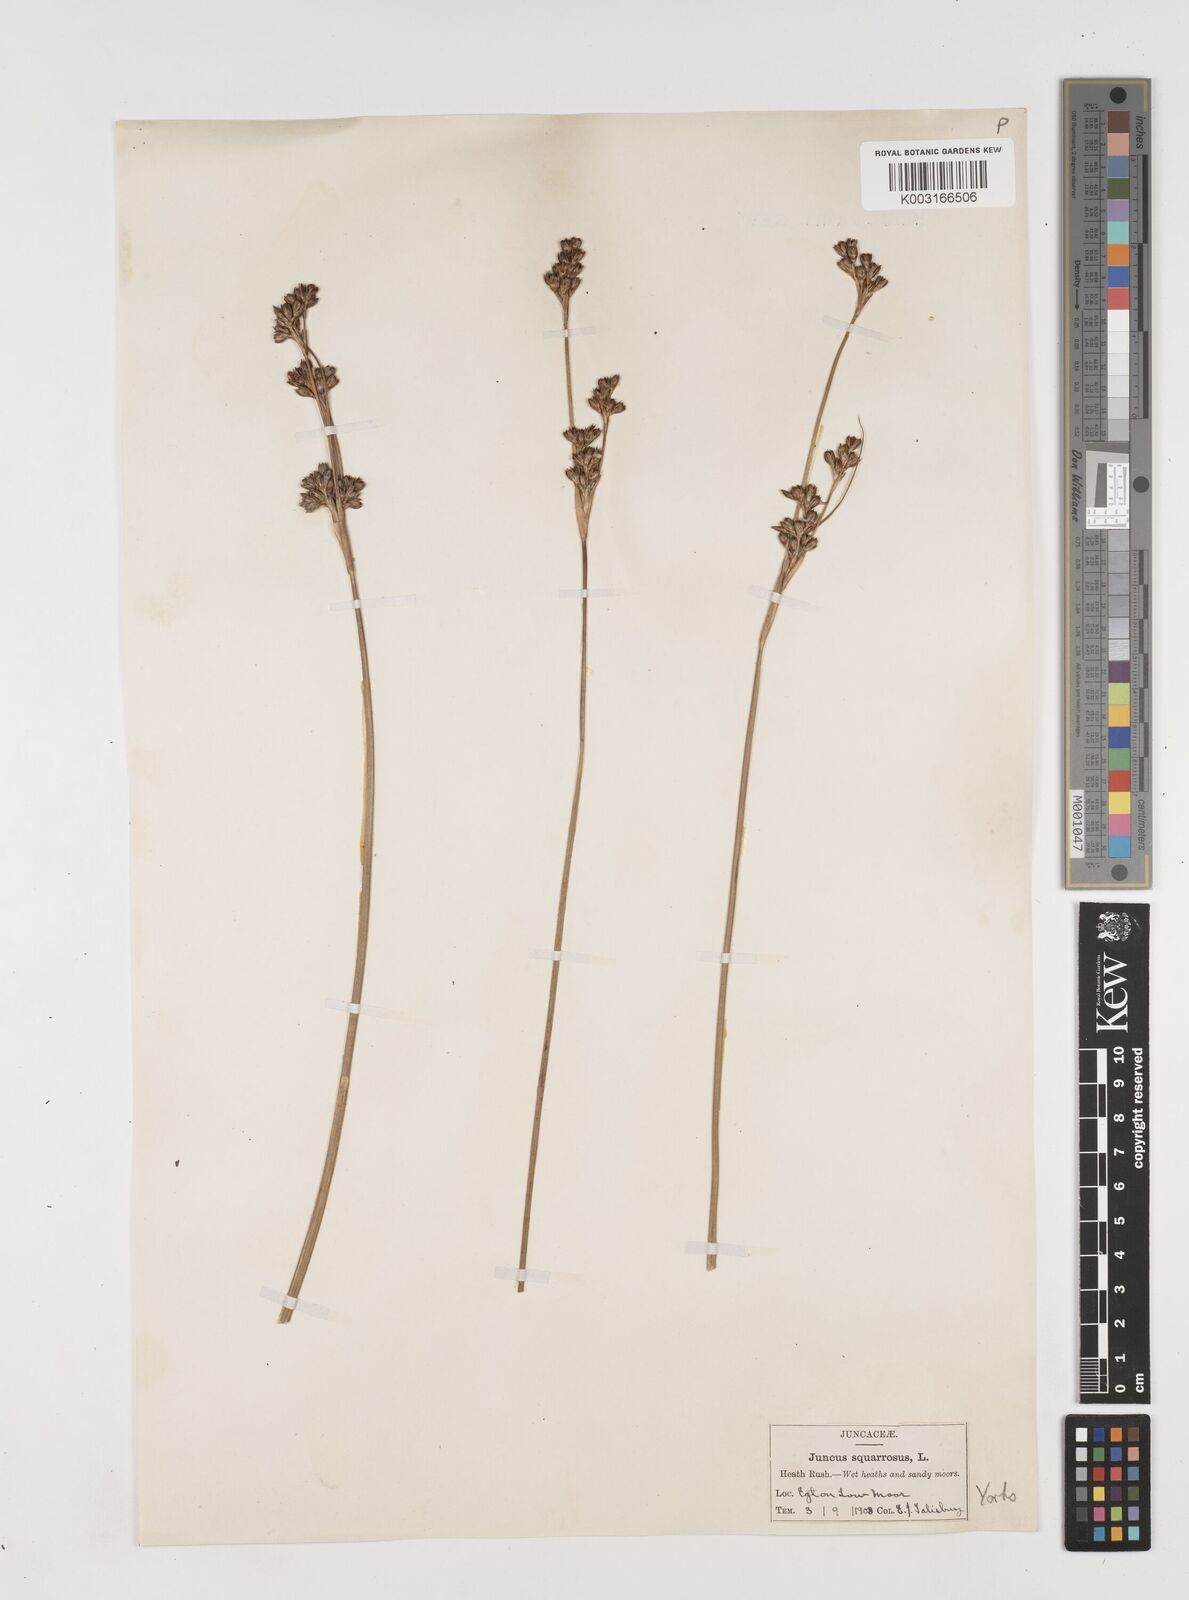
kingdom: Plantae
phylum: Tracheophyta
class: Liliopsida
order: Poales
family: Juncaceae
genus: Juncus
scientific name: Juncus squarrosus
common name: Heath rush
